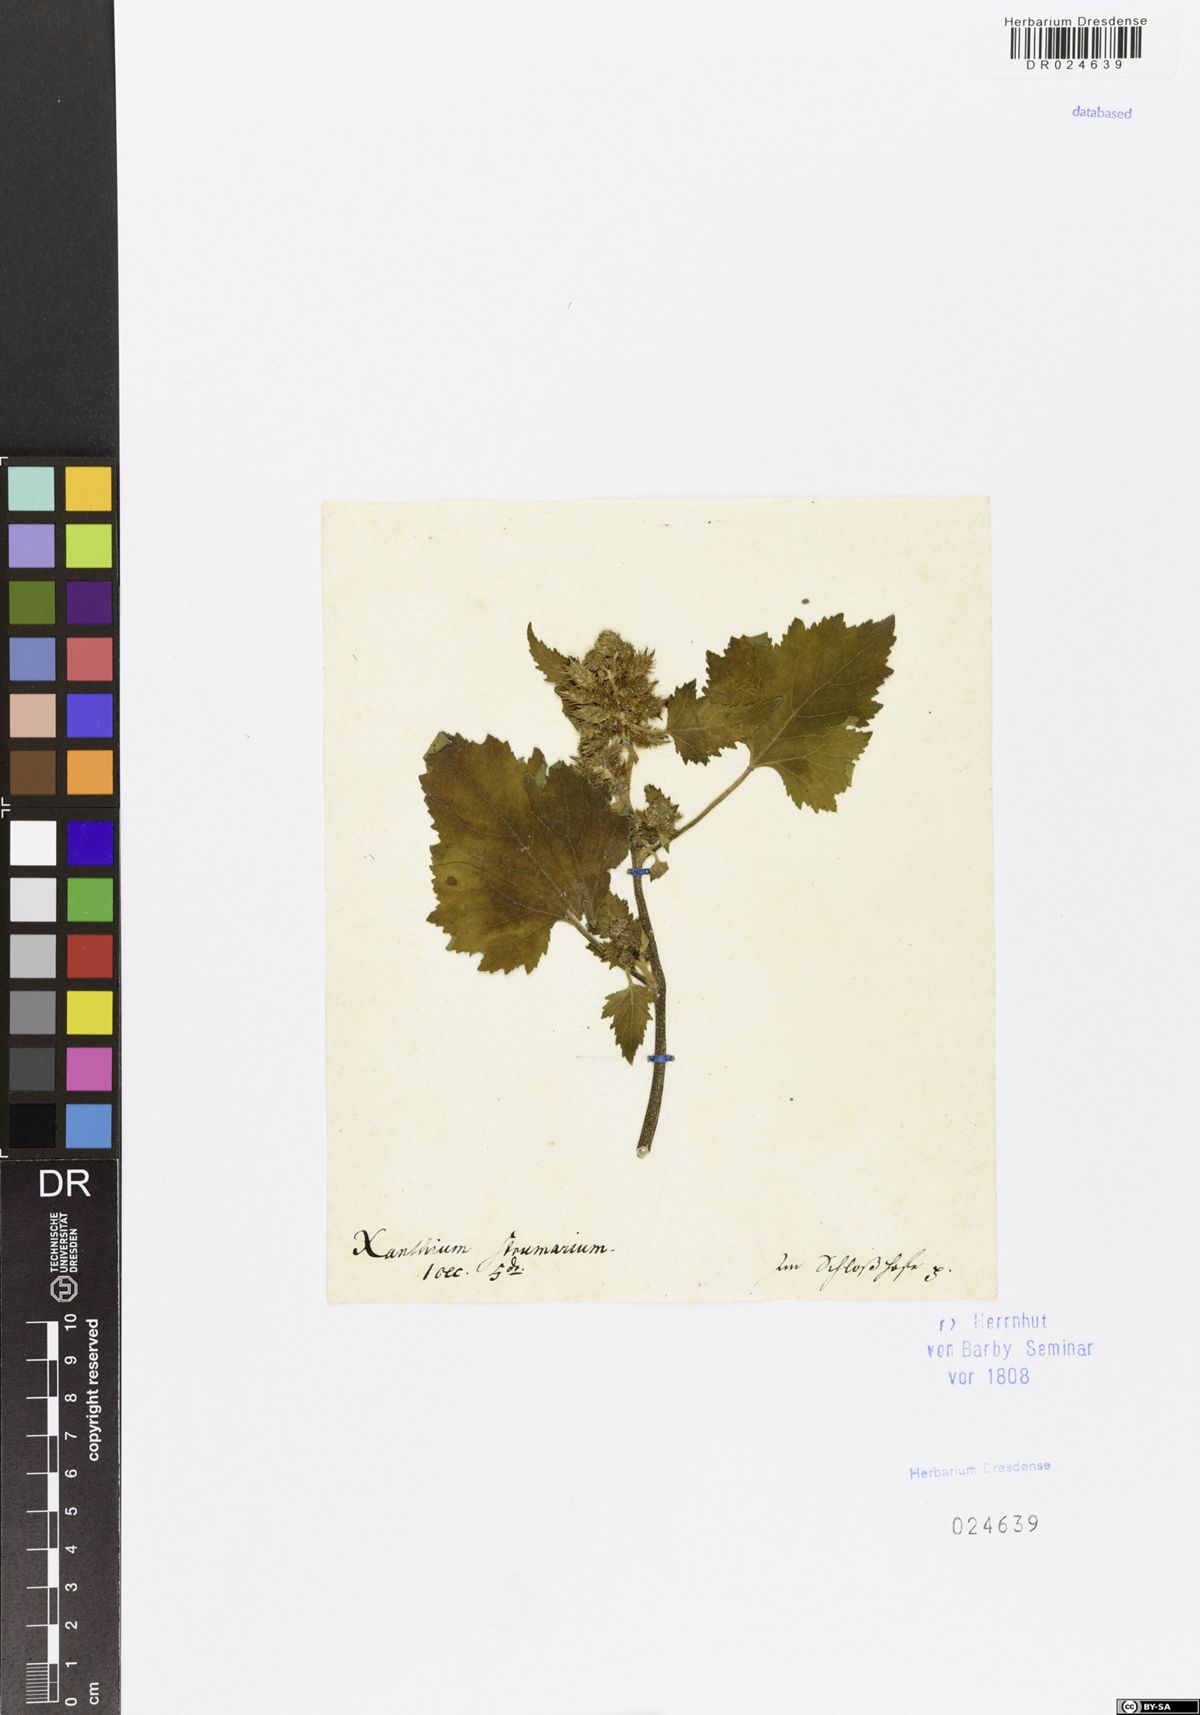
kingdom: Plantae
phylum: Tracheophyta
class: Magnoliopsida
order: Asterales
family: Asteraceae
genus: Xanthium
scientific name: Xanthium strumarium
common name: Rough cocklebur
